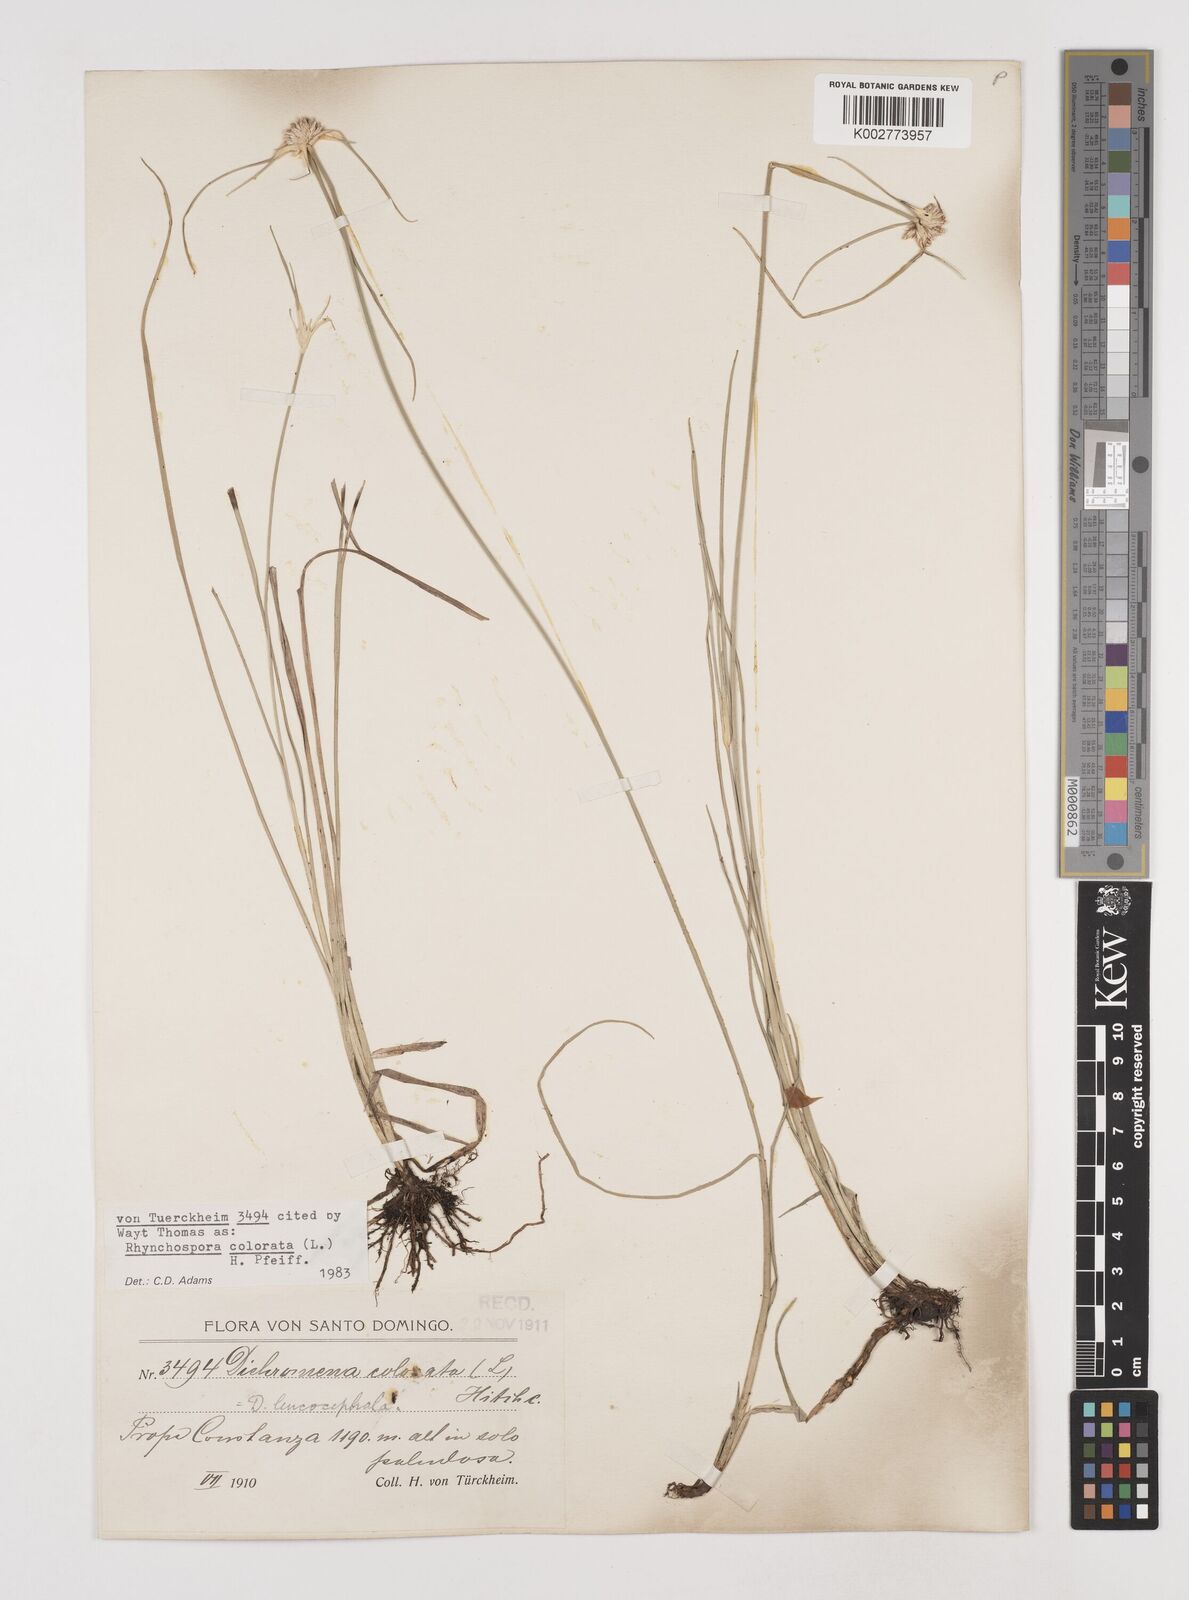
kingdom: Plantae
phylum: Tracheophyta
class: Liliopsida
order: Poales
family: Cyperaceae
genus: Rhynchospora
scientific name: Rhynchospora colorata
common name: Star sedge
